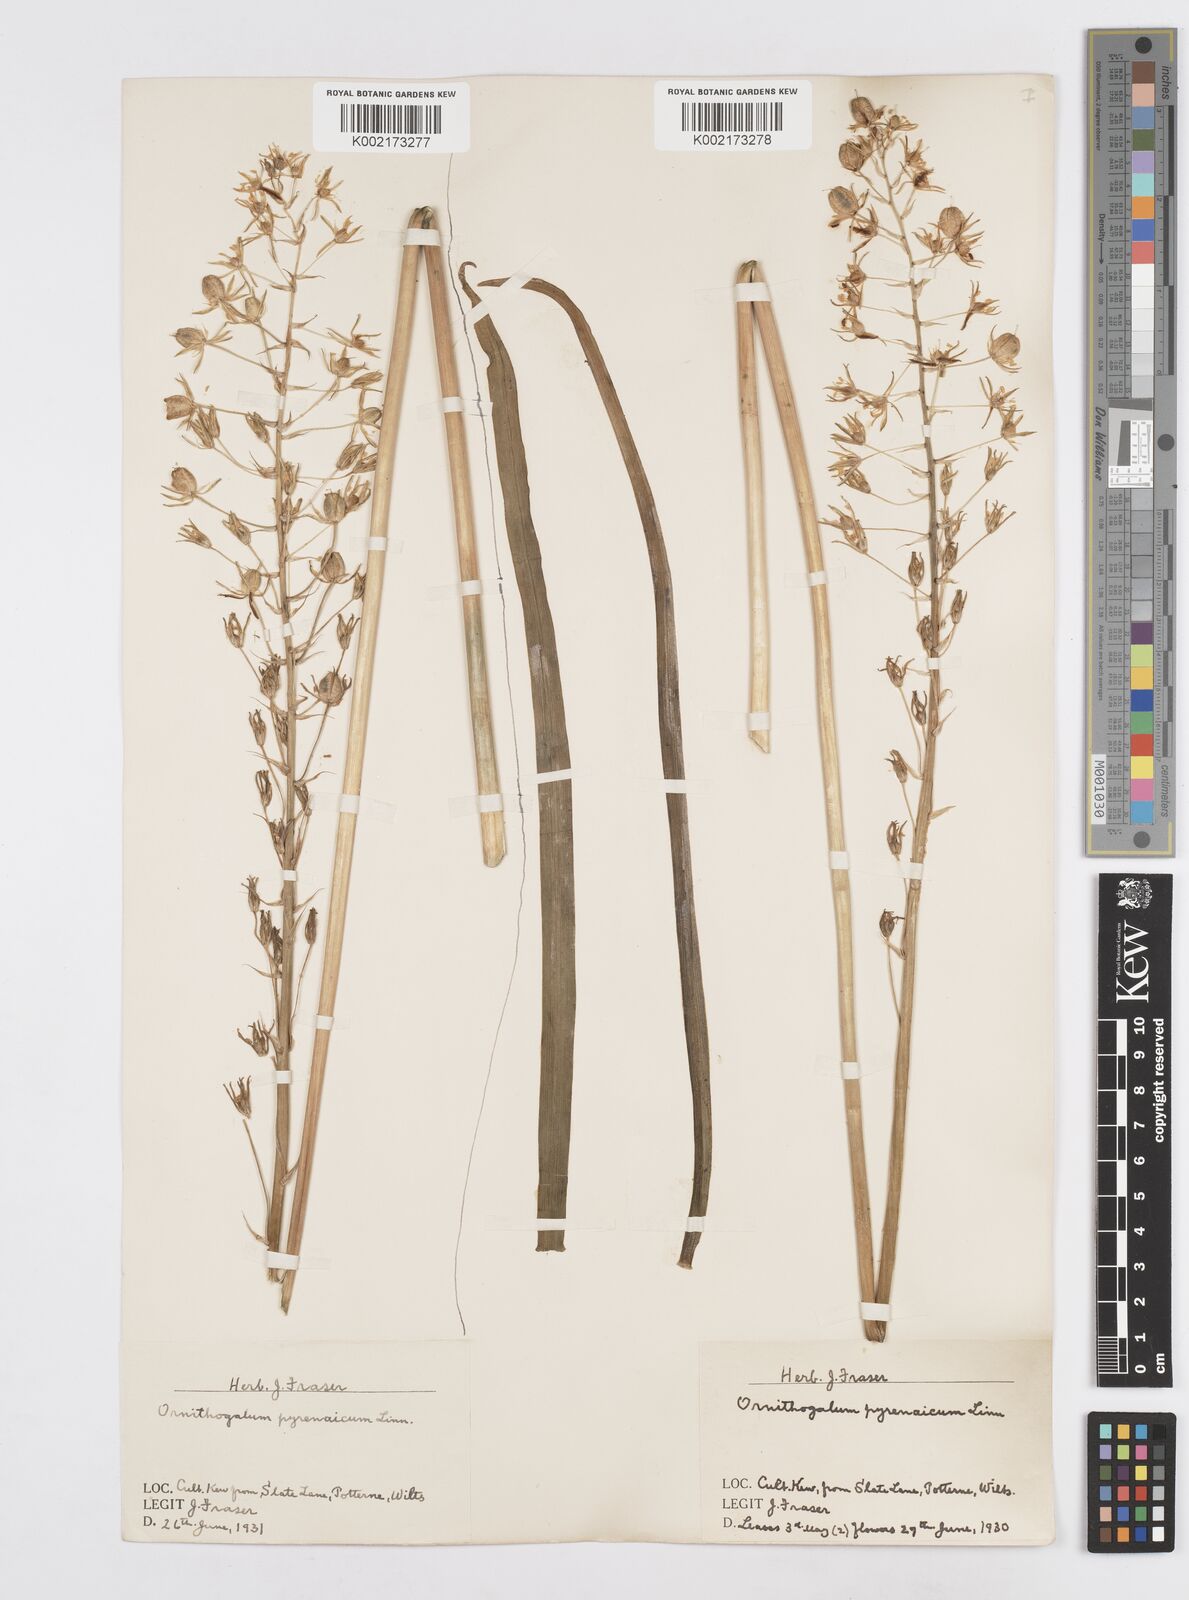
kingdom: Plantae
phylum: Tracheophyta
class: Liliopsida
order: Asparagales
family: Asparagaceae
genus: Ornithogalum
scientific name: Ornithogalum pyrenaicum
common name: Spiked star-of-bethlehem
